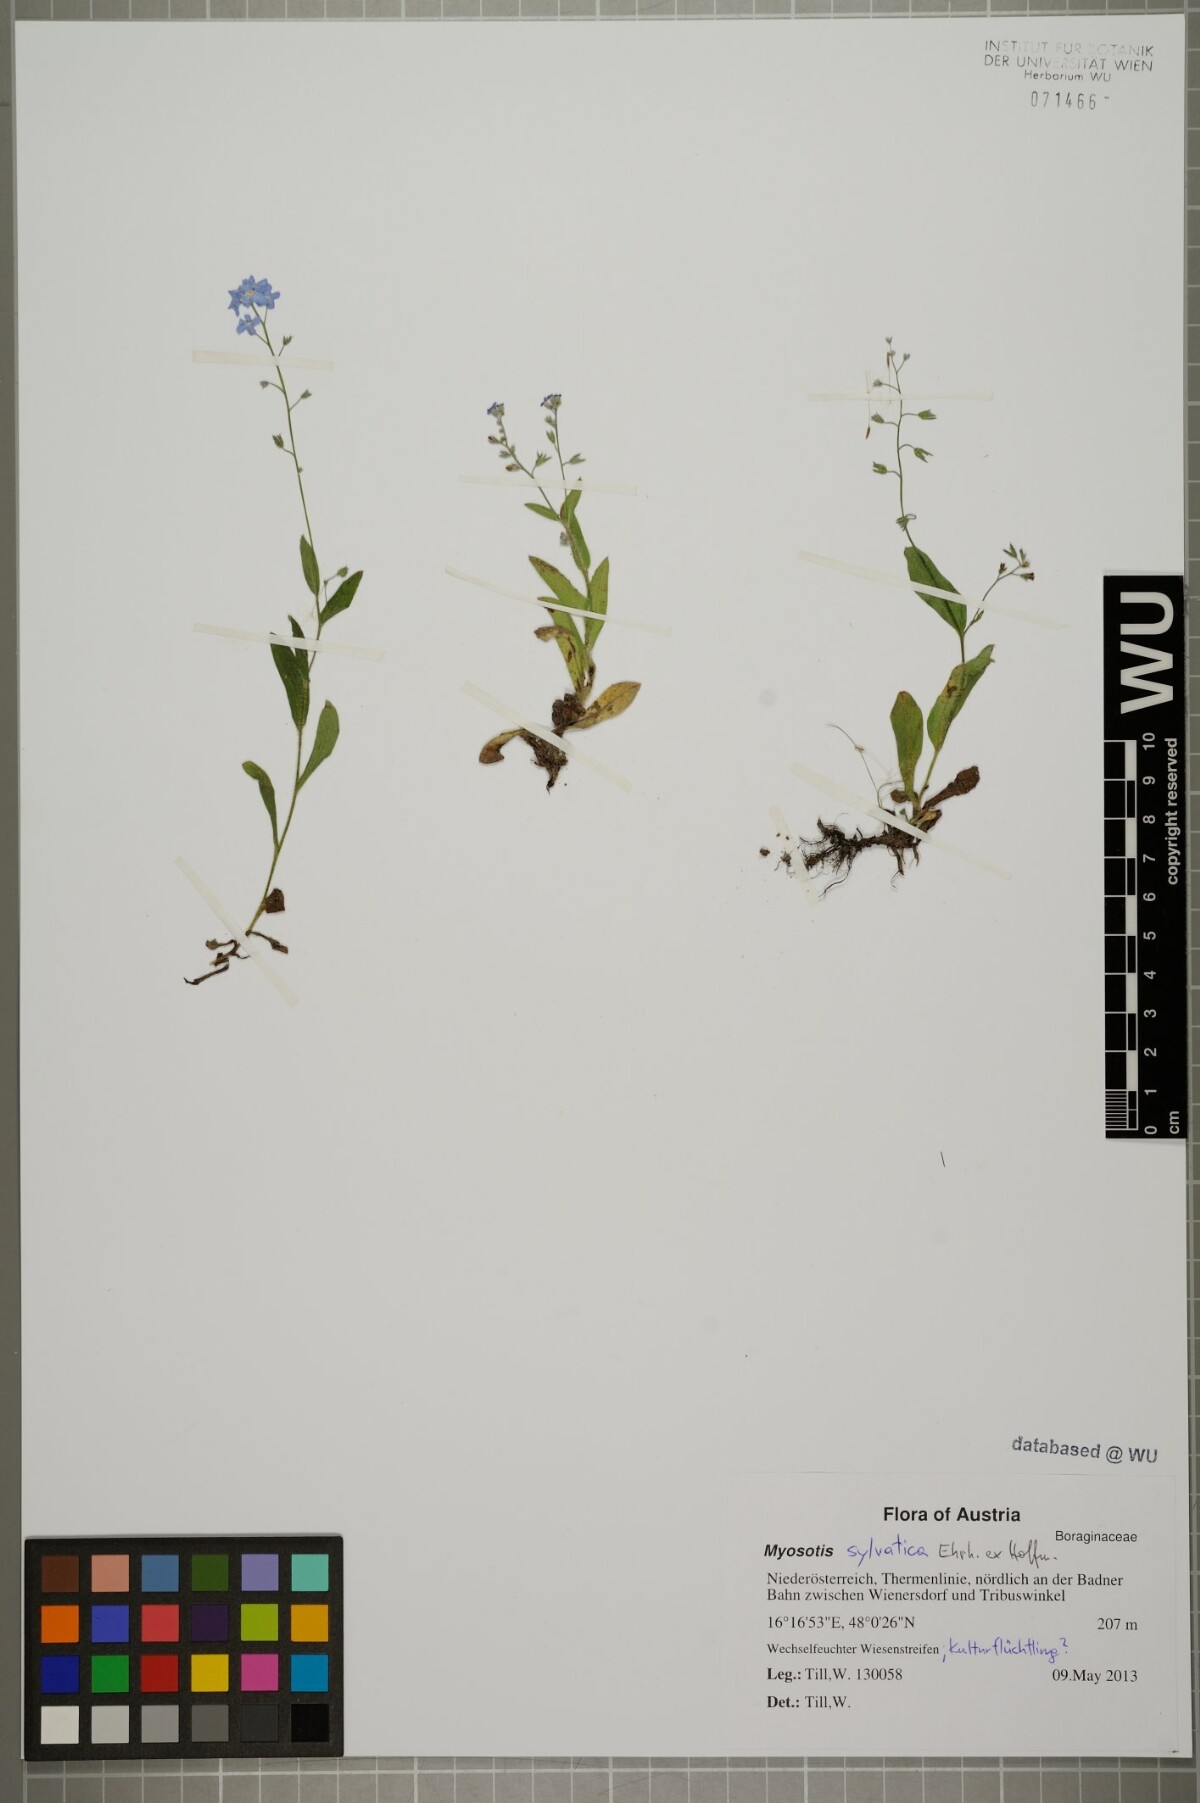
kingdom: Plantae
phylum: Tracheophyta
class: Magnoliopsida
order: Boraginales
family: Boraginaceae
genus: Myosotis
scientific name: Myosotis sylvatica
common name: Wood forget-me-not
